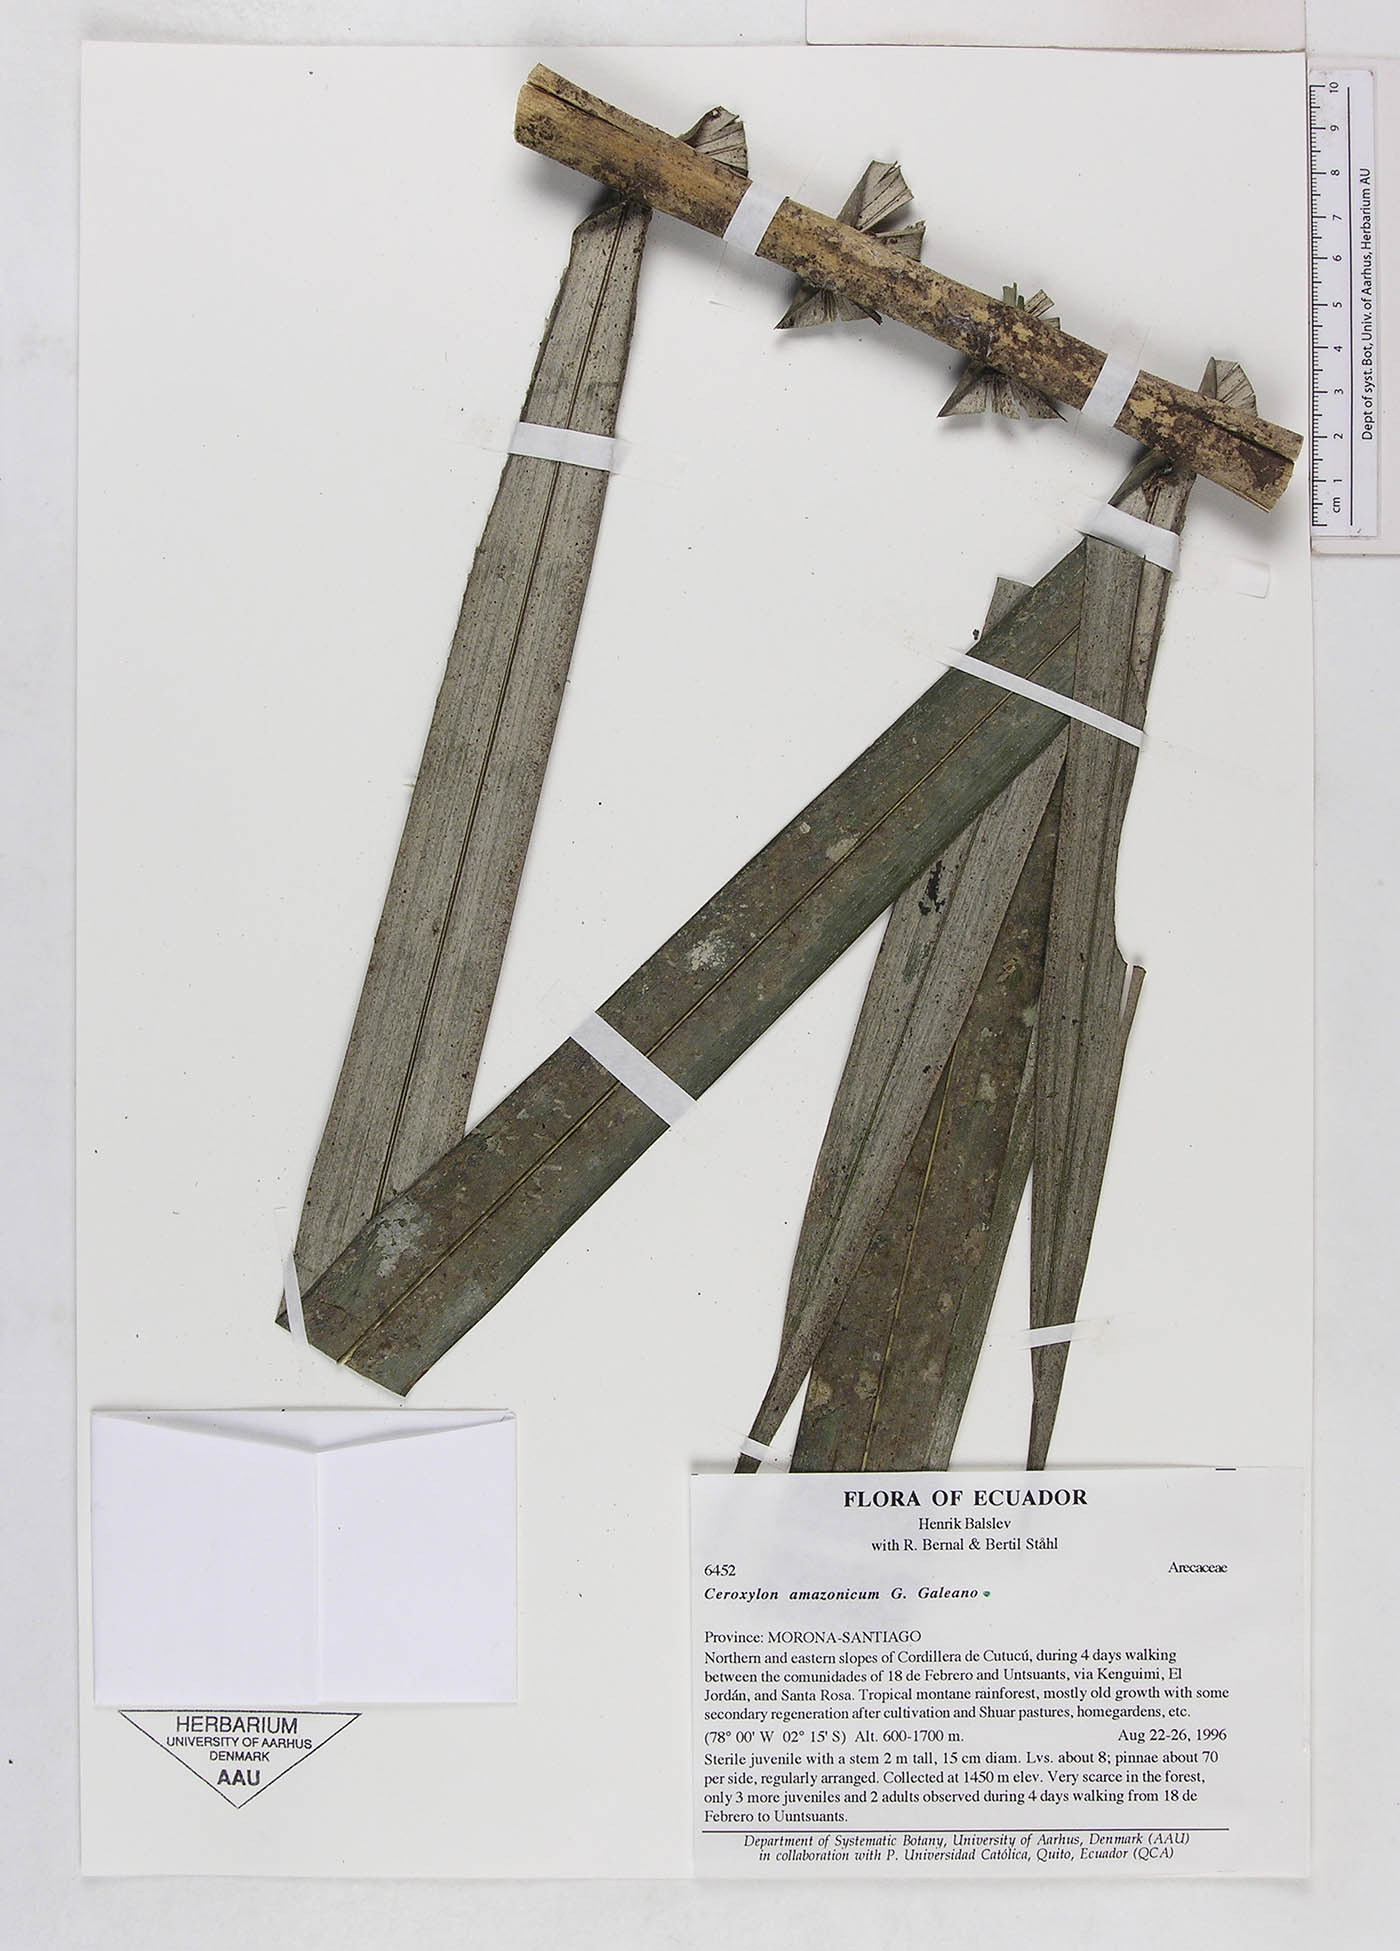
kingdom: Plantae
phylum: Tracheophyta
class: Liliopsida
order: Arecales
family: Arecaceae
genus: Ceroxylon
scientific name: Ceroxylon amazonicum
